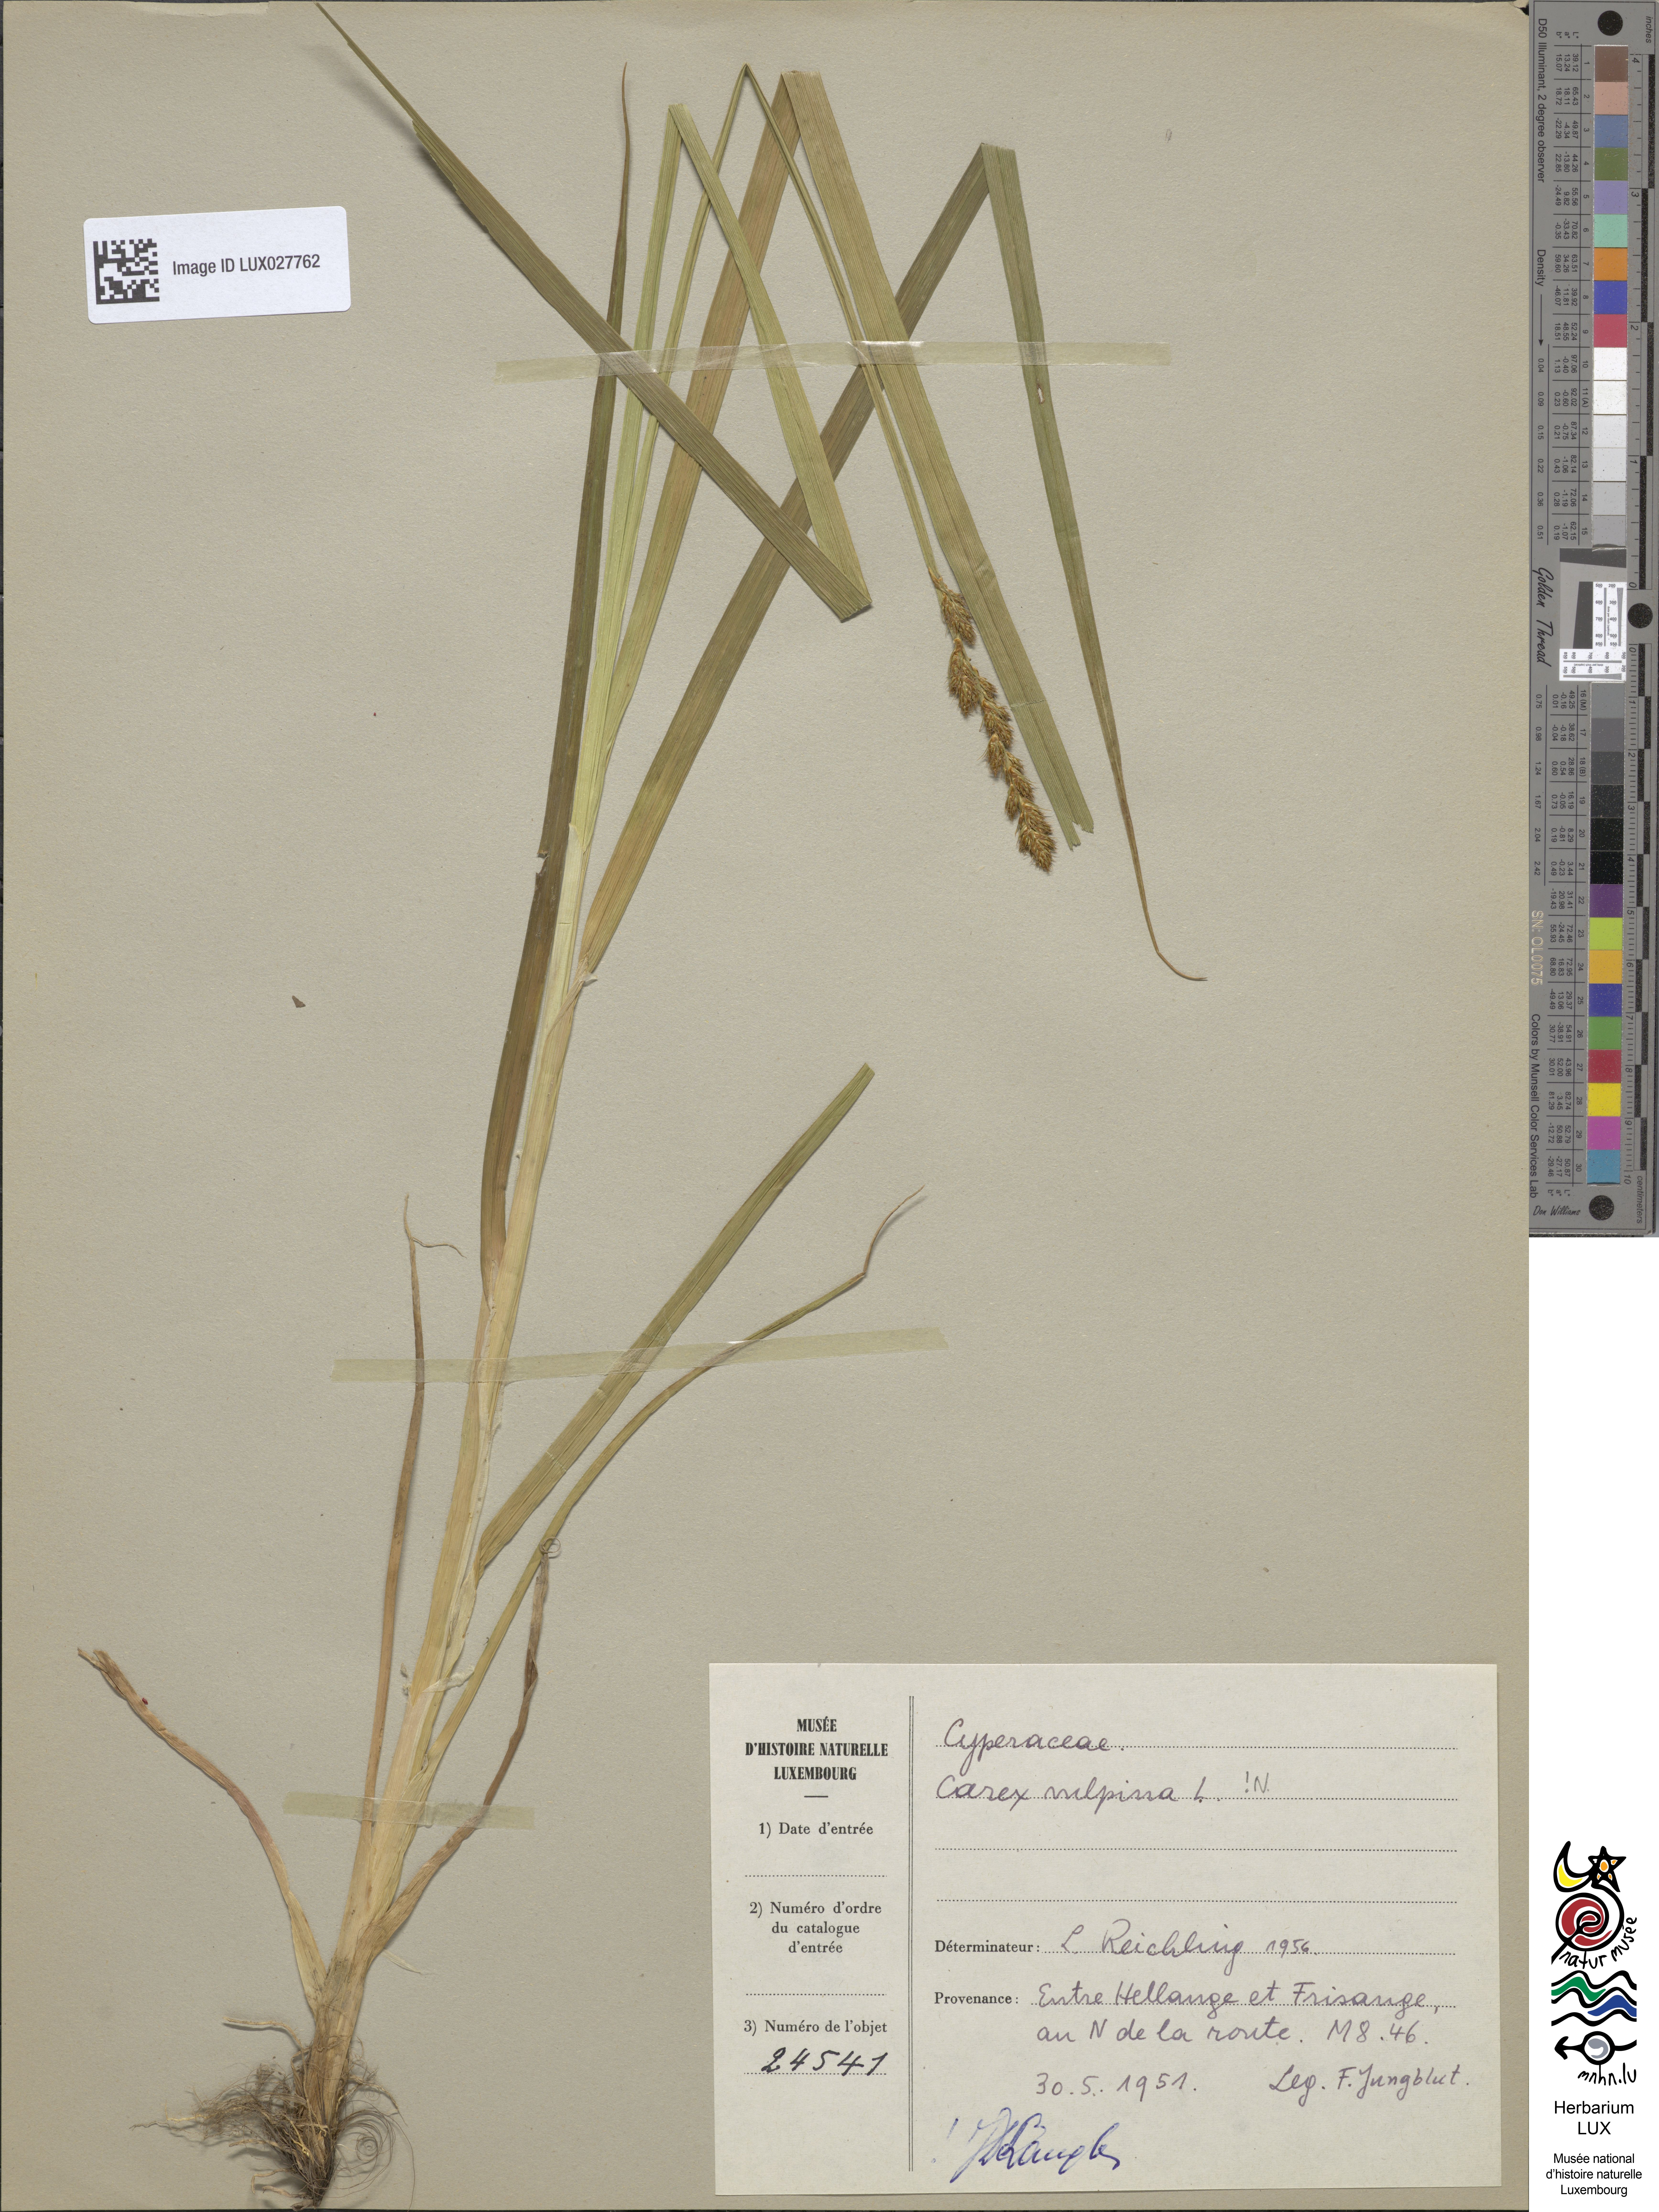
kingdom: Plantae
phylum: Tracheophyta
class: Liliopsida
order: Poales
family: Cyperaceae
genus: Carex
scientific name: Carex vulpina
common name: True fox-sedge
